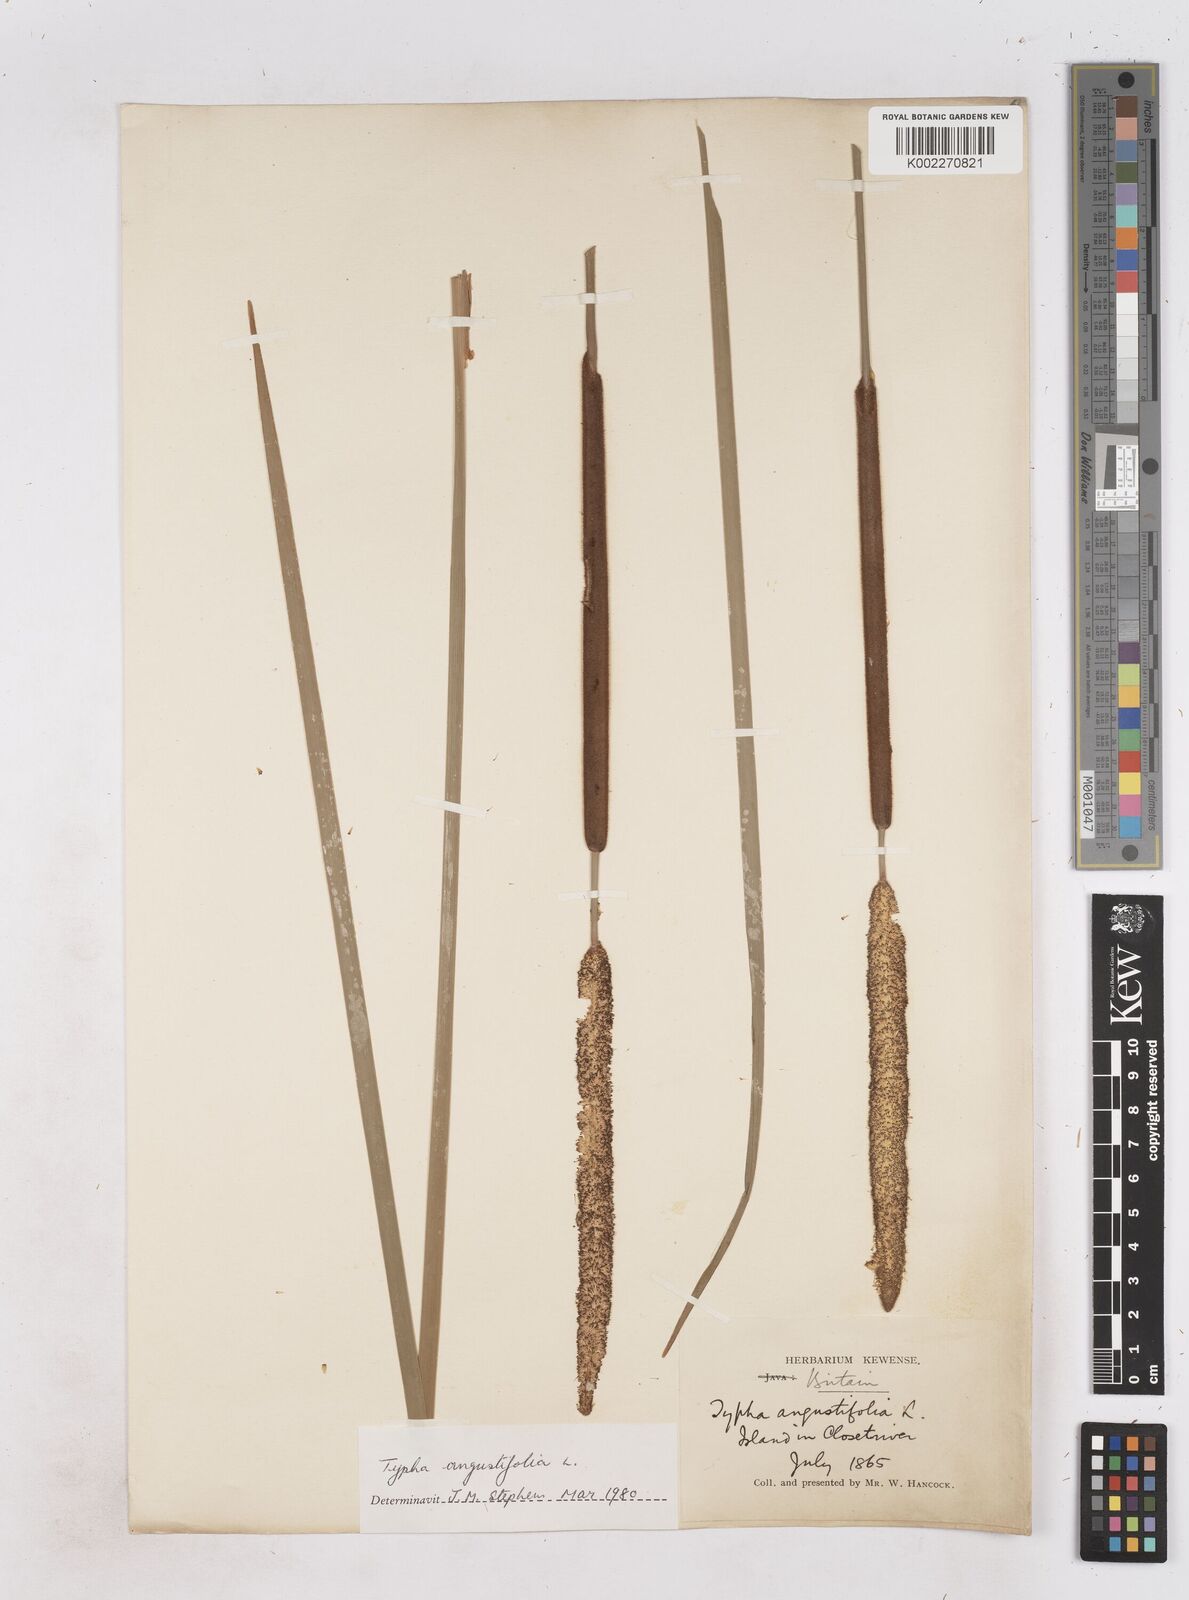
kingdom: Plantae
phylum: Tracheophyta
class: Liliopsida
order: Poales
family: Typhaceae
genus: Typha
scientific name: Typha angustifolia
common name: Lesser bulrush
